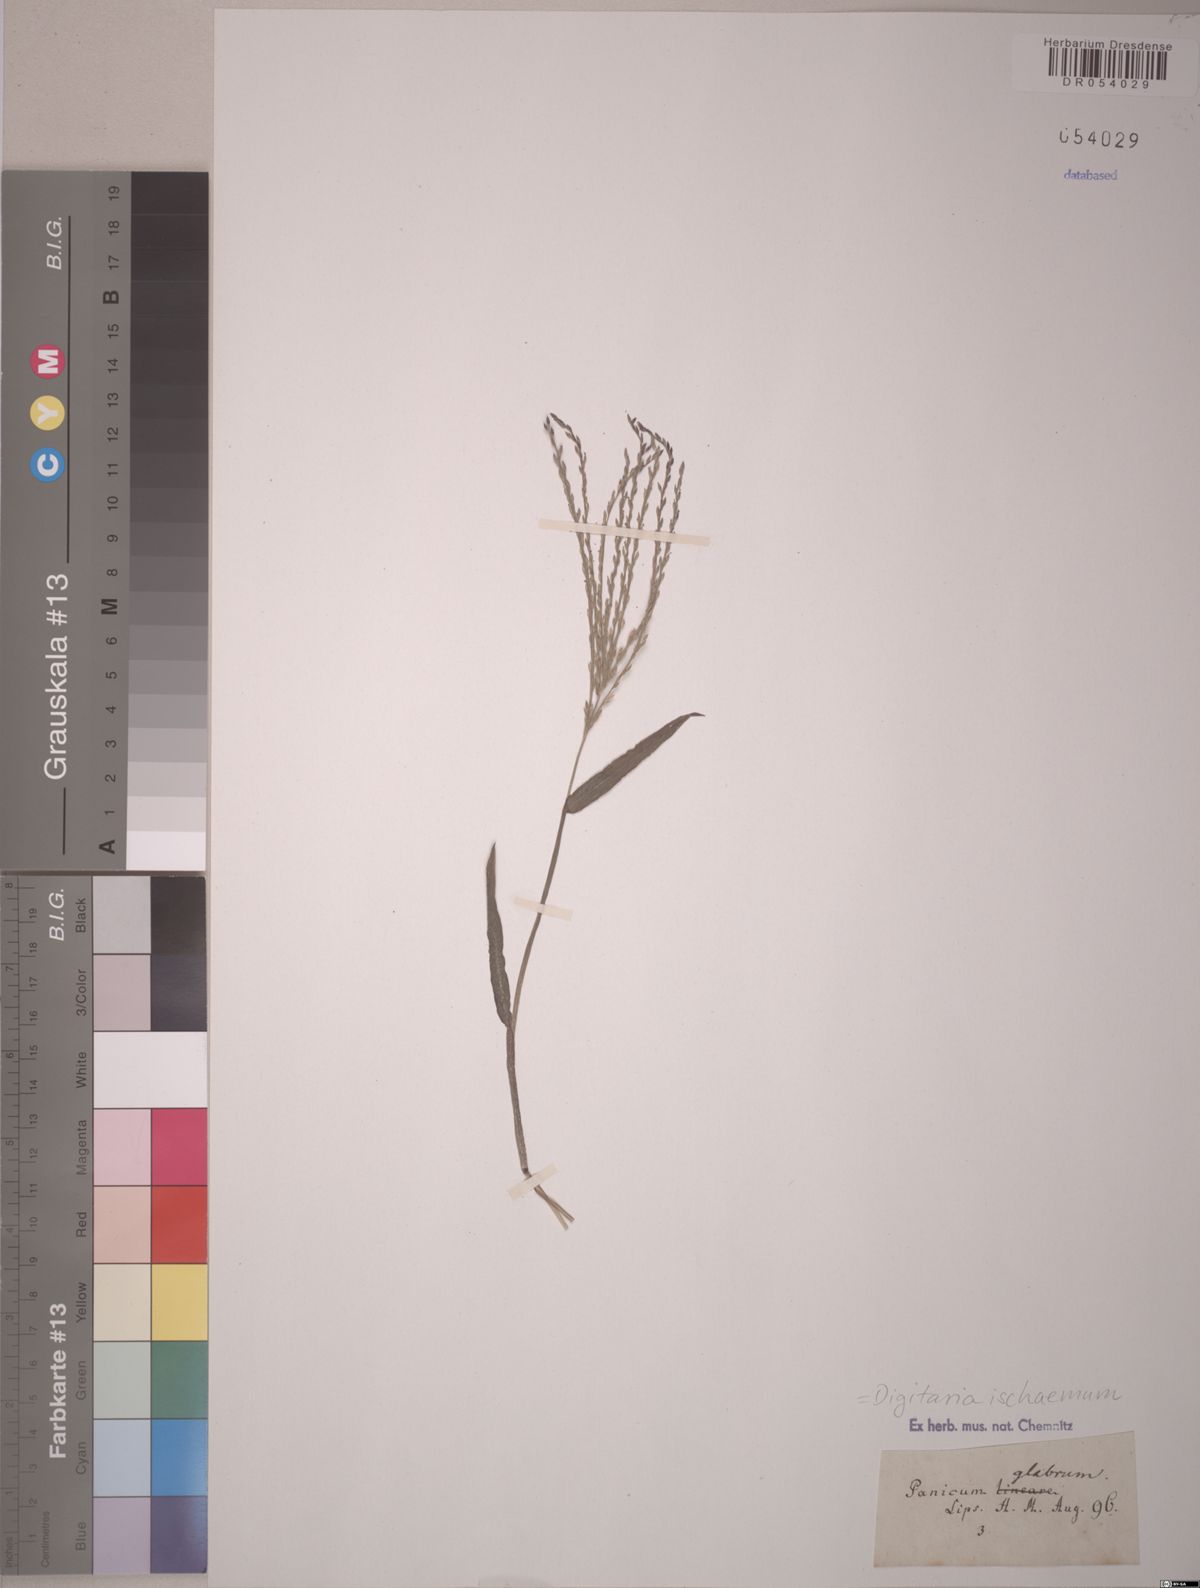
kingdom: Plantae
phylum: Tracheophyta
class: Liliopsida
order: Poales
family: Poaceae
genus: Digitaria
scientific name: Digitaria ischaemum
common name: Smooth crabgrass
